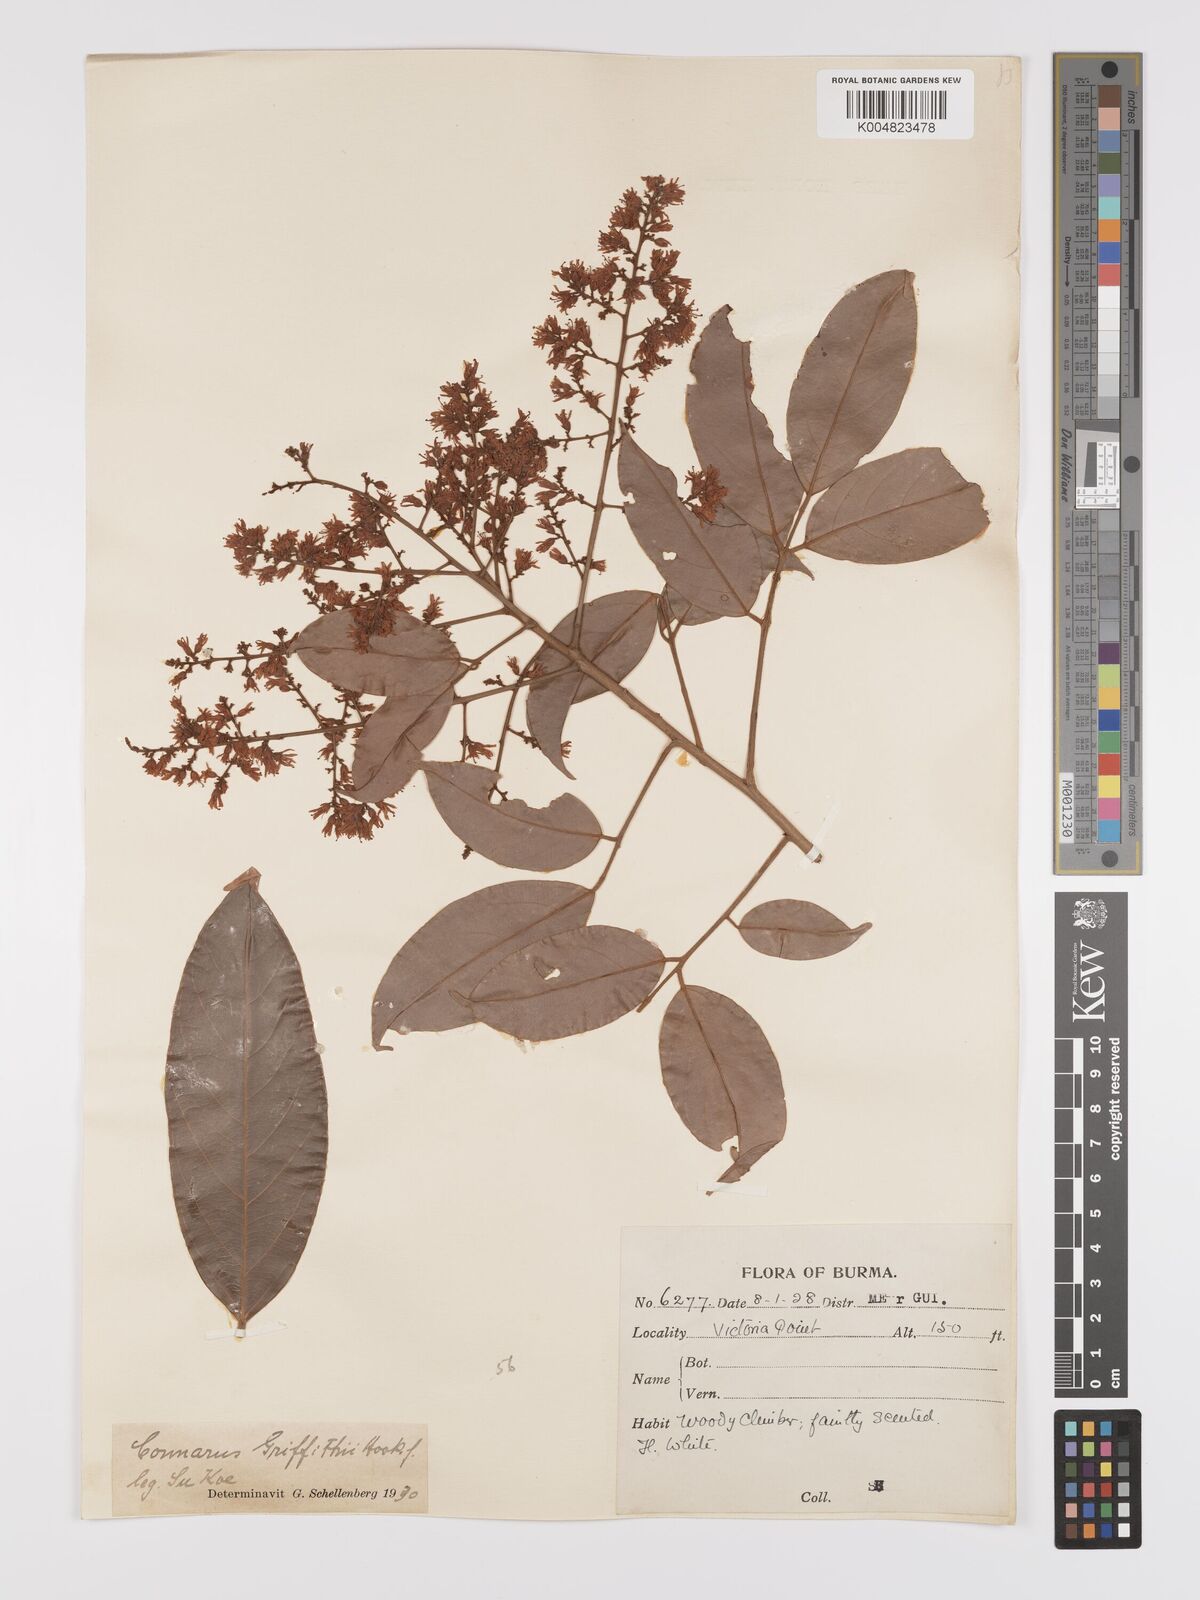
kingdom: Plantae
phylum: Tracheophyta
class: Magnoliopsida
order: Oxalidales
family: Connaraceae
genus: Connarus
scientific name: Connarus semidecandrus
